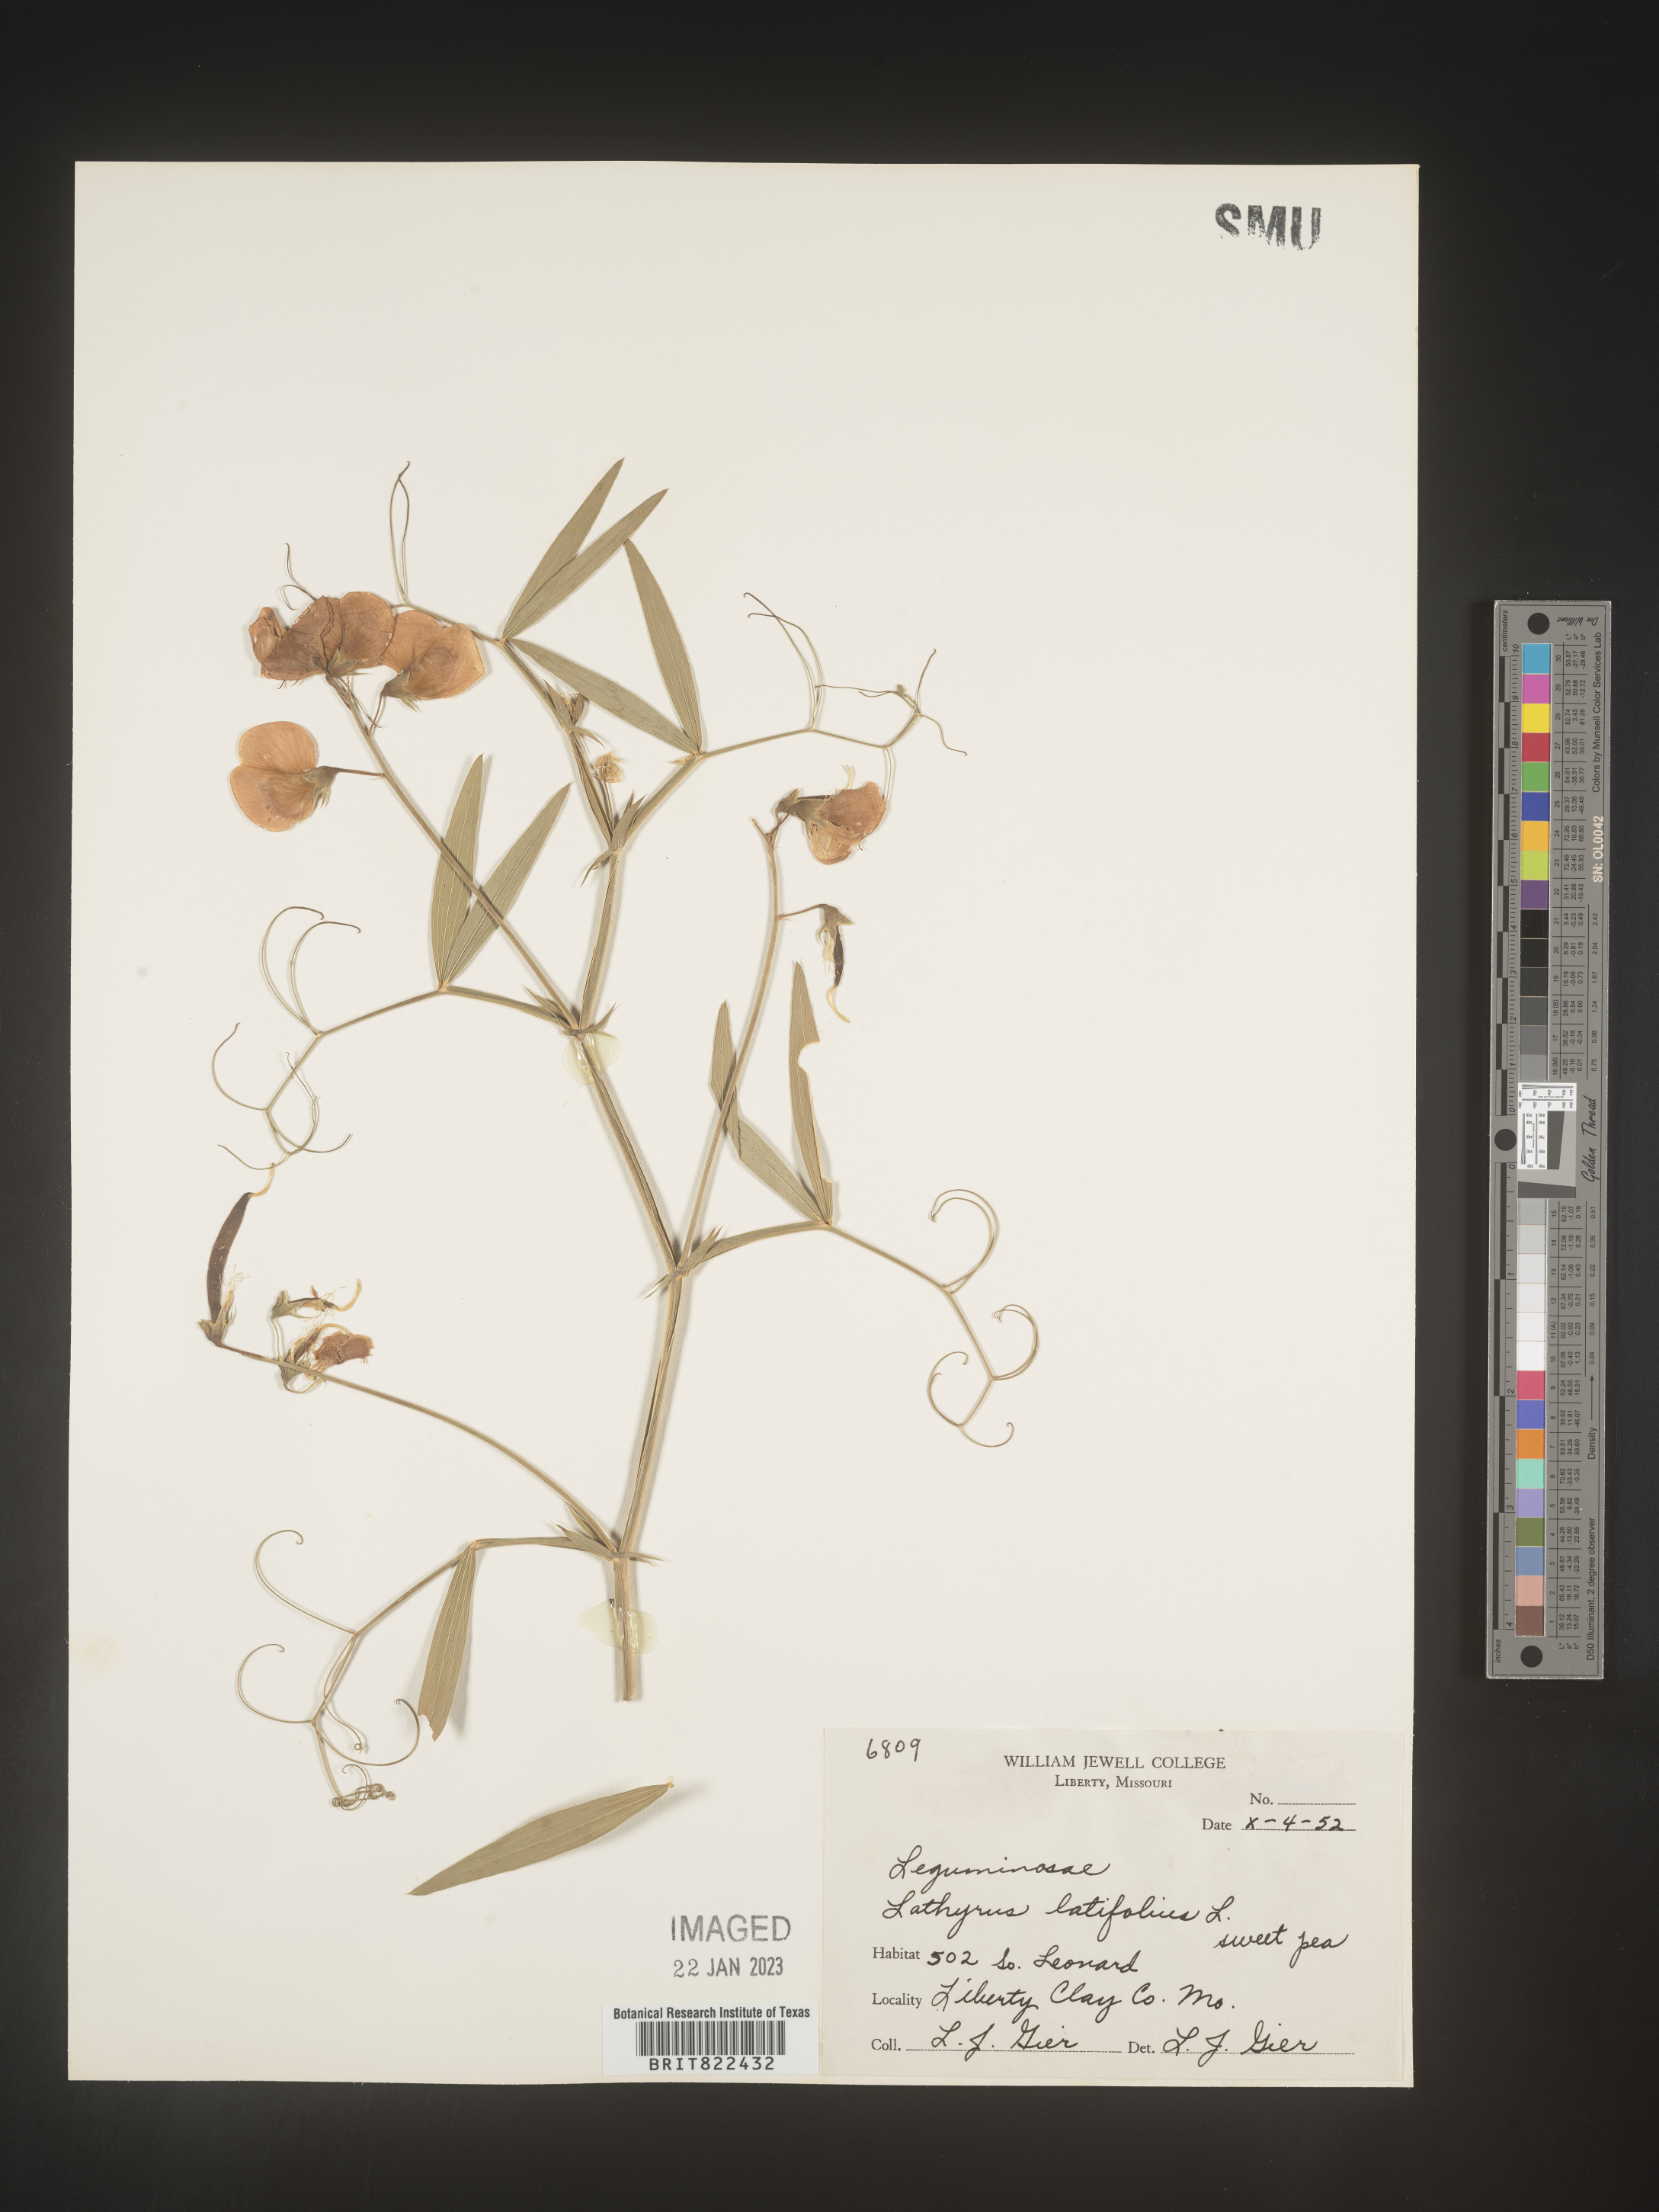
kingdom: Plantae
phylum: Tracheophyta
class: Magnoliopsida
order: Fabales
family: Fabaceae
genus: Lathyrus
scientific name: Lathyrus
